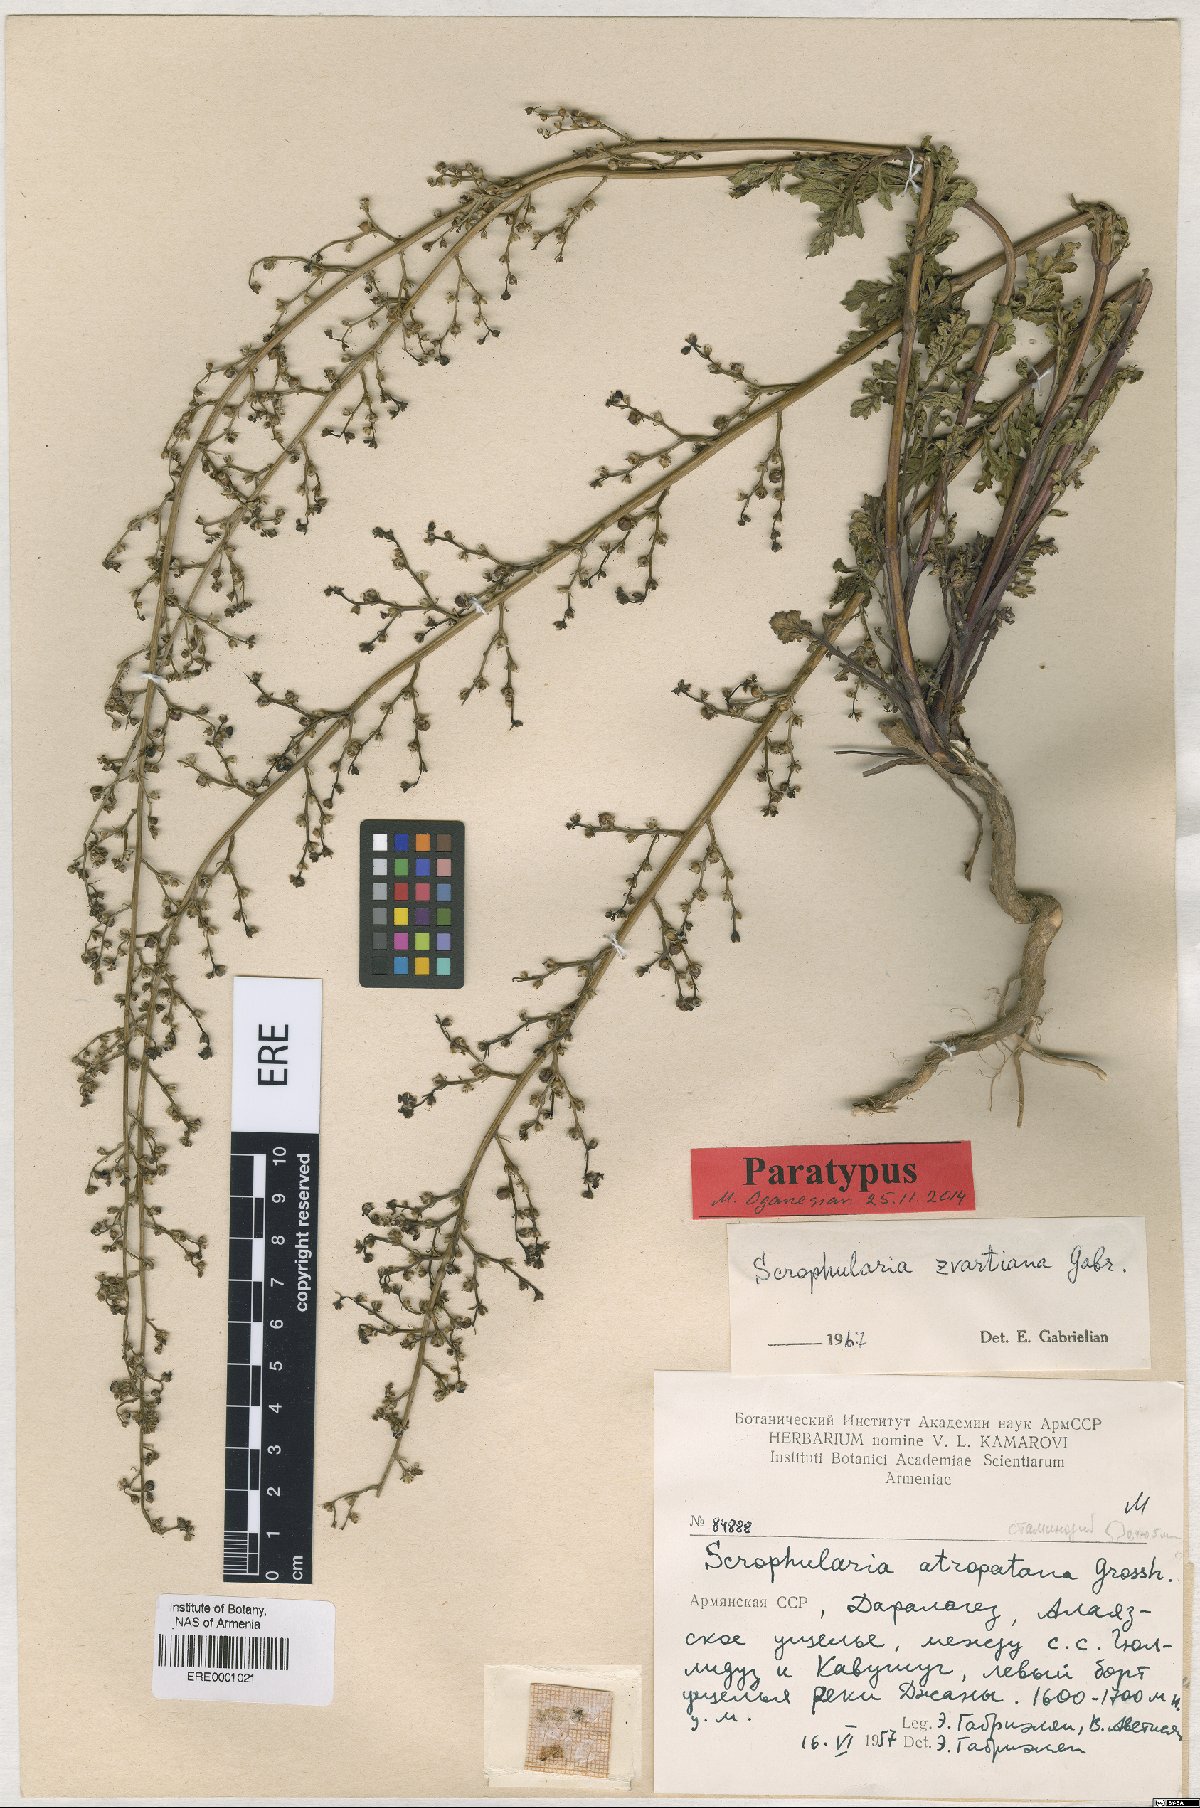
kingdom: Plantae
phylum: Tracheophyta
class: Magnoliopsida
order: Lamiales
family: Scrophulariaceae
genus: Scrophularia
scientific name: Scrophularia zvartiana
